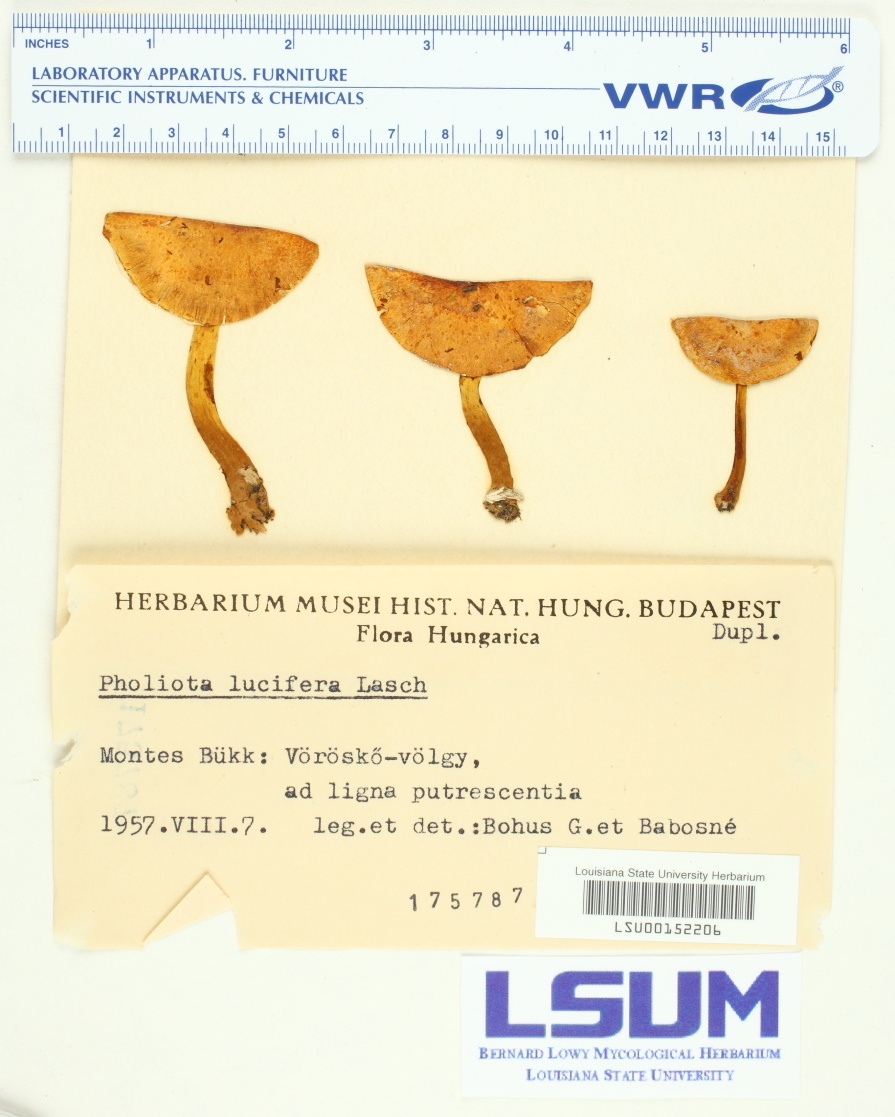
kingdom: Fungi
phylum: Basidiomycota
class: Agaricomycetes
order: Agaricales
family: Strophariaceae
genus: Pholiota
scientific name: Pholiota lucifera
